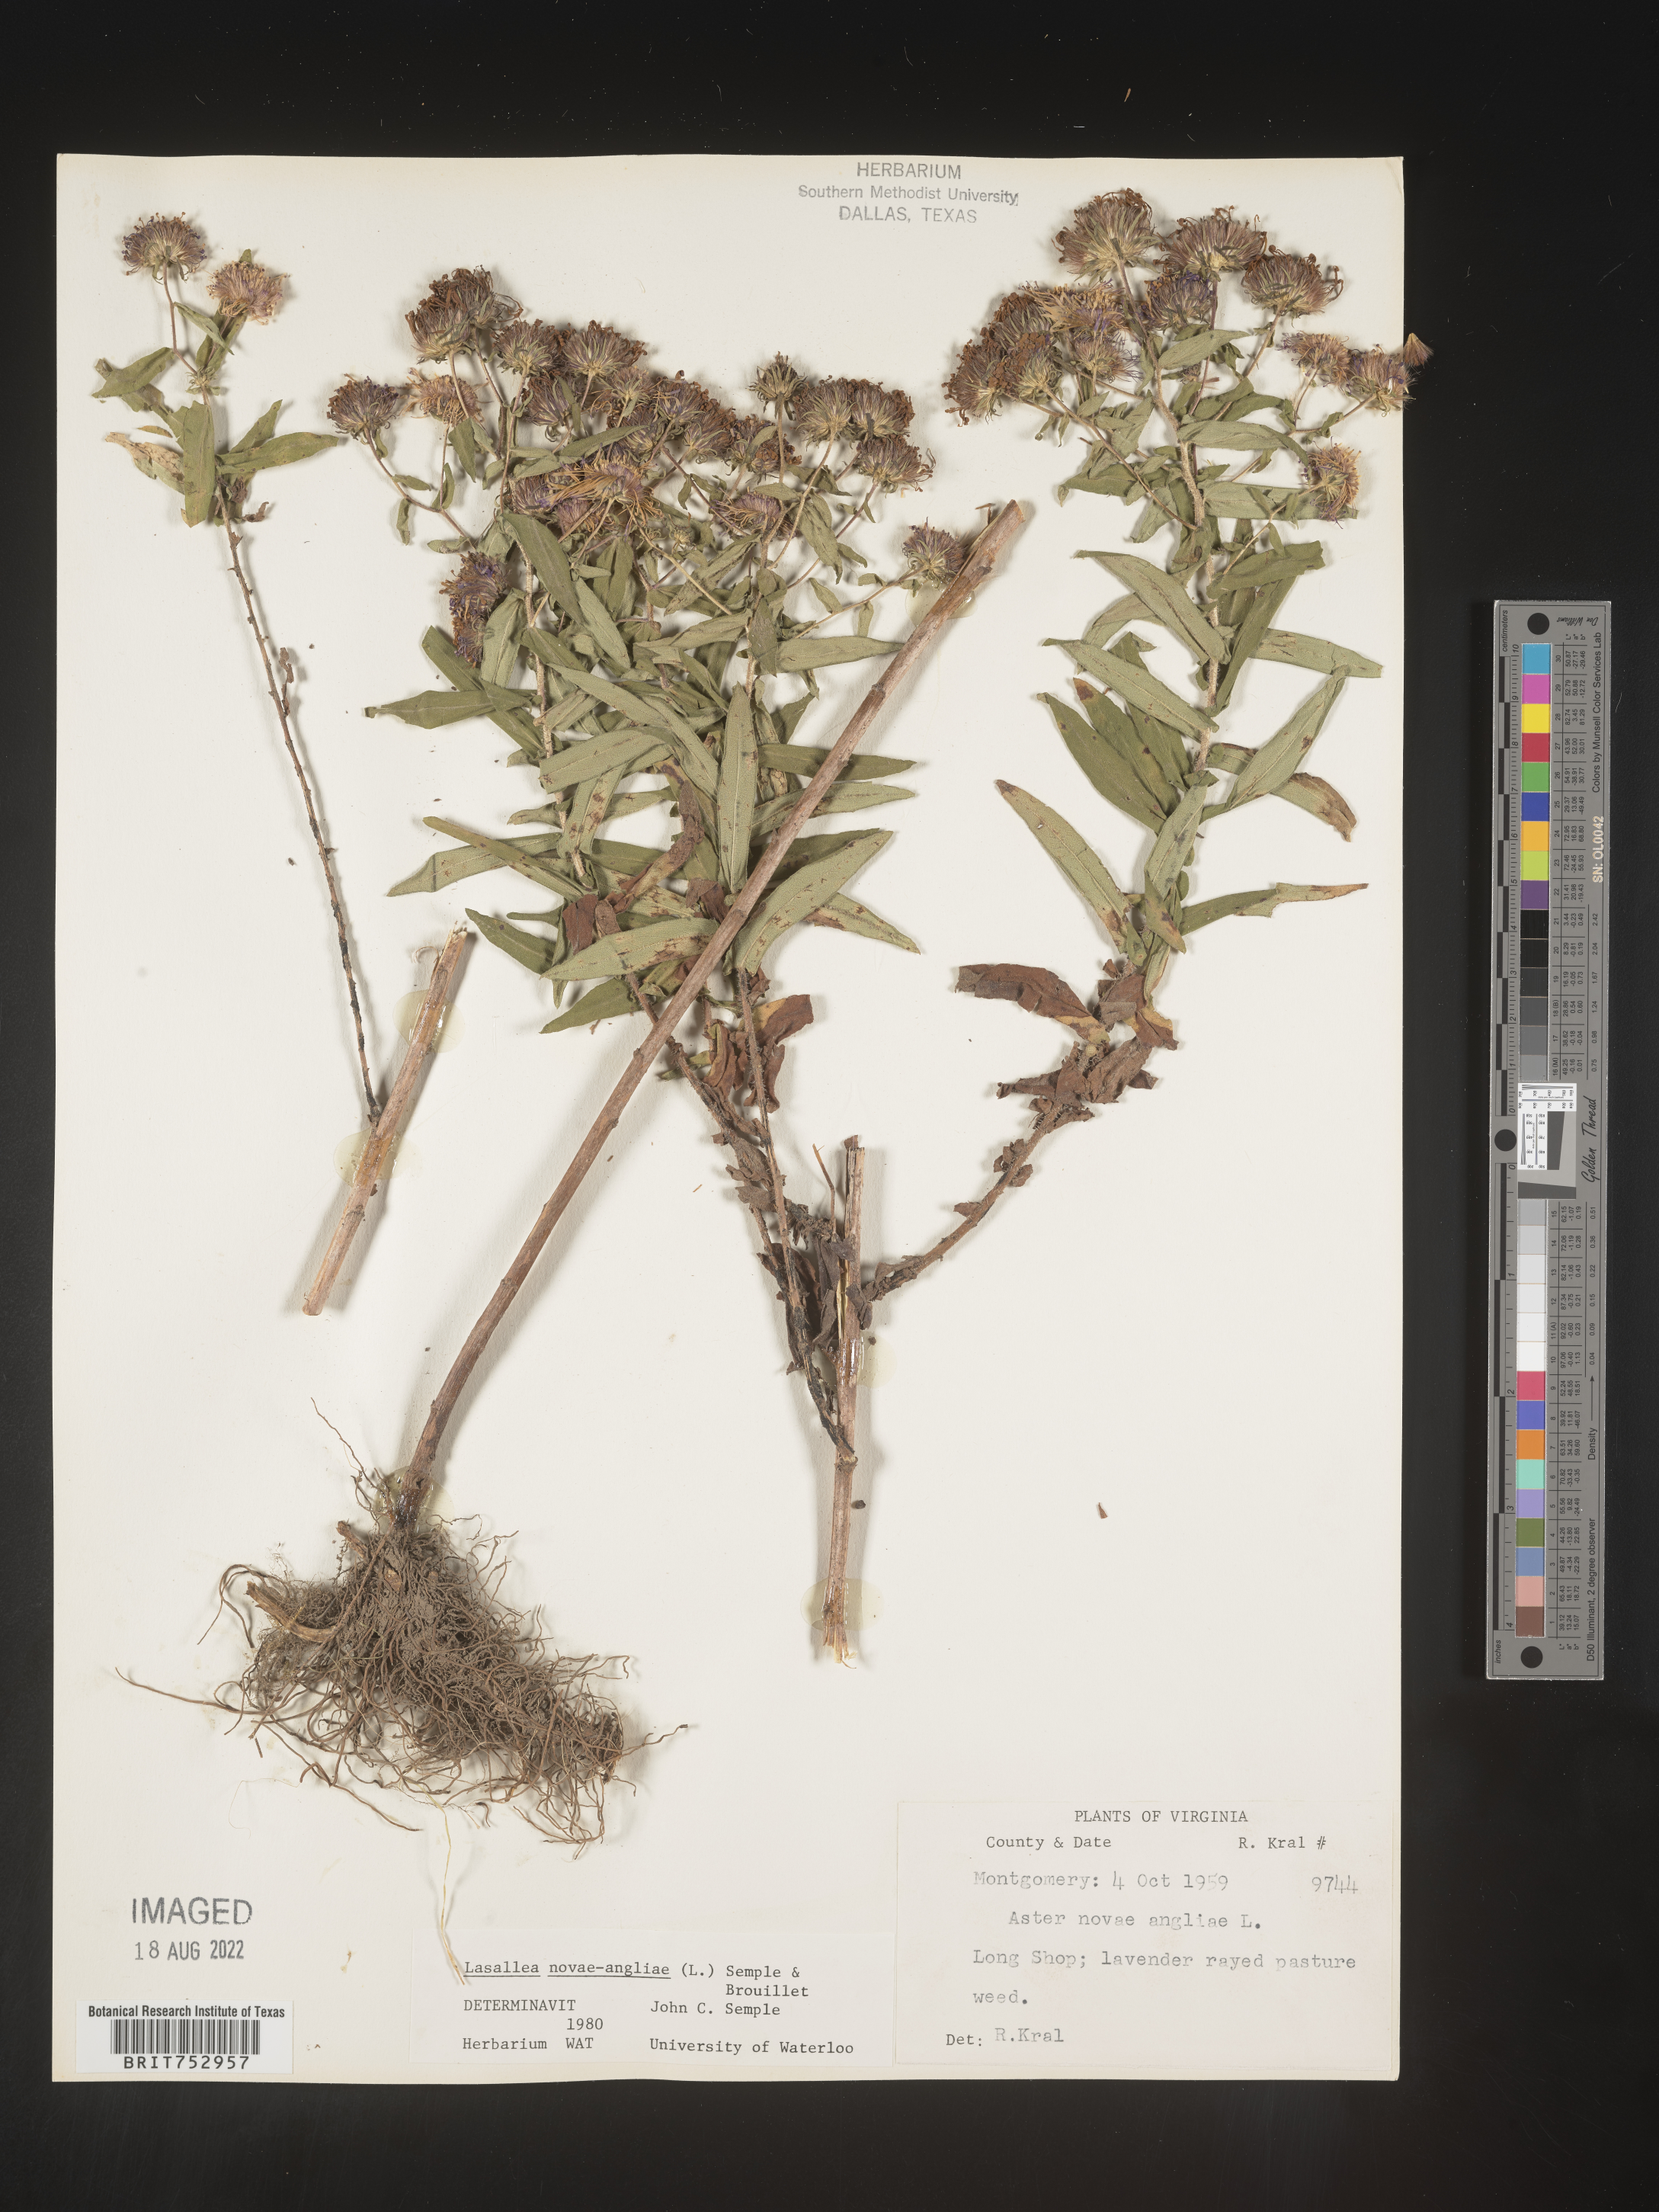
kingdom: Plantae
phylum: Tracheophyta
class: Magnoliopsida
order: Asterales
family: Asteraceae
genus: Symphyotrichum
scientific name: Symphyotrichum novae-angliae
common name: Michaelmas daisy
